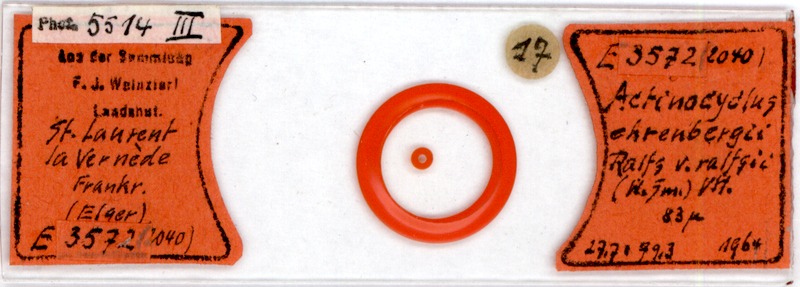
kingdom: Chromista
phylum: Ochrophyta
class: Bacillariophyceae
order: Triceratiales
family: Triceratiaceae
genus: Eupodiscus
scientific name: Eupodiscus ralfsii
